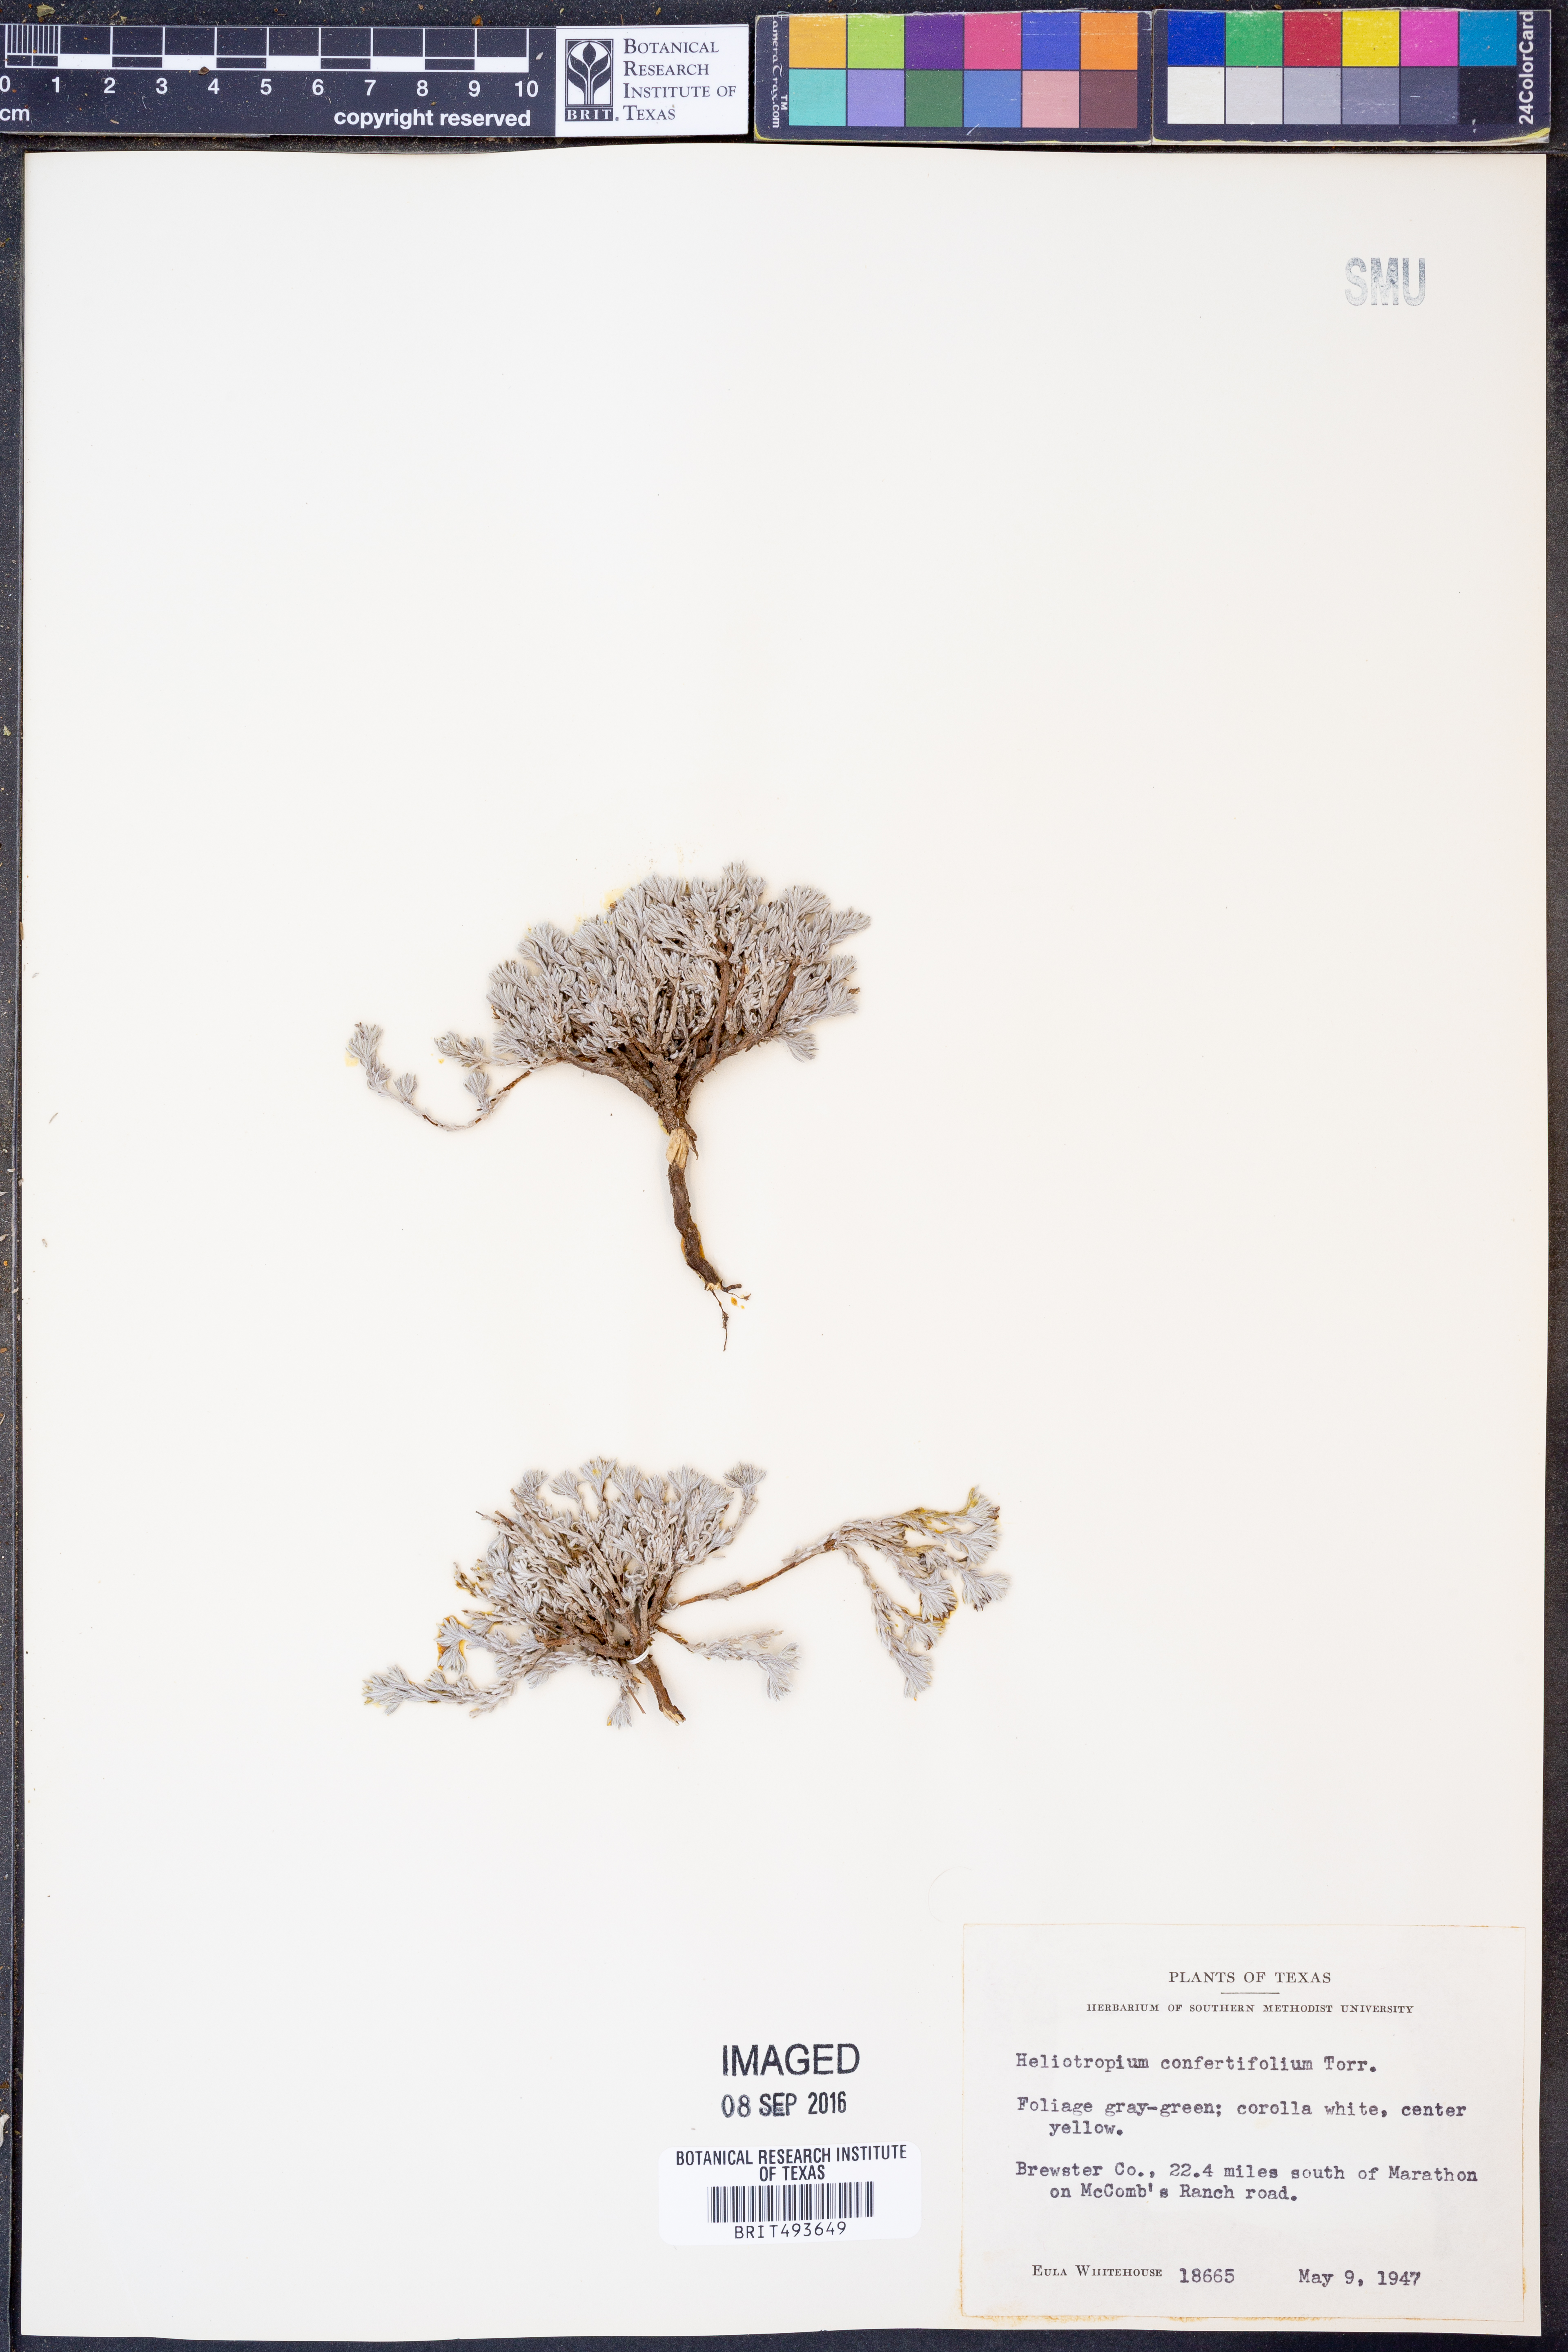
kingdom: Plantae
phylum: Tracheophyta
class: Magnoliopsida
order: Boraginales
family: Heliotropiaceae
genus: Euploca
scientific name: Euploca confertifolia
